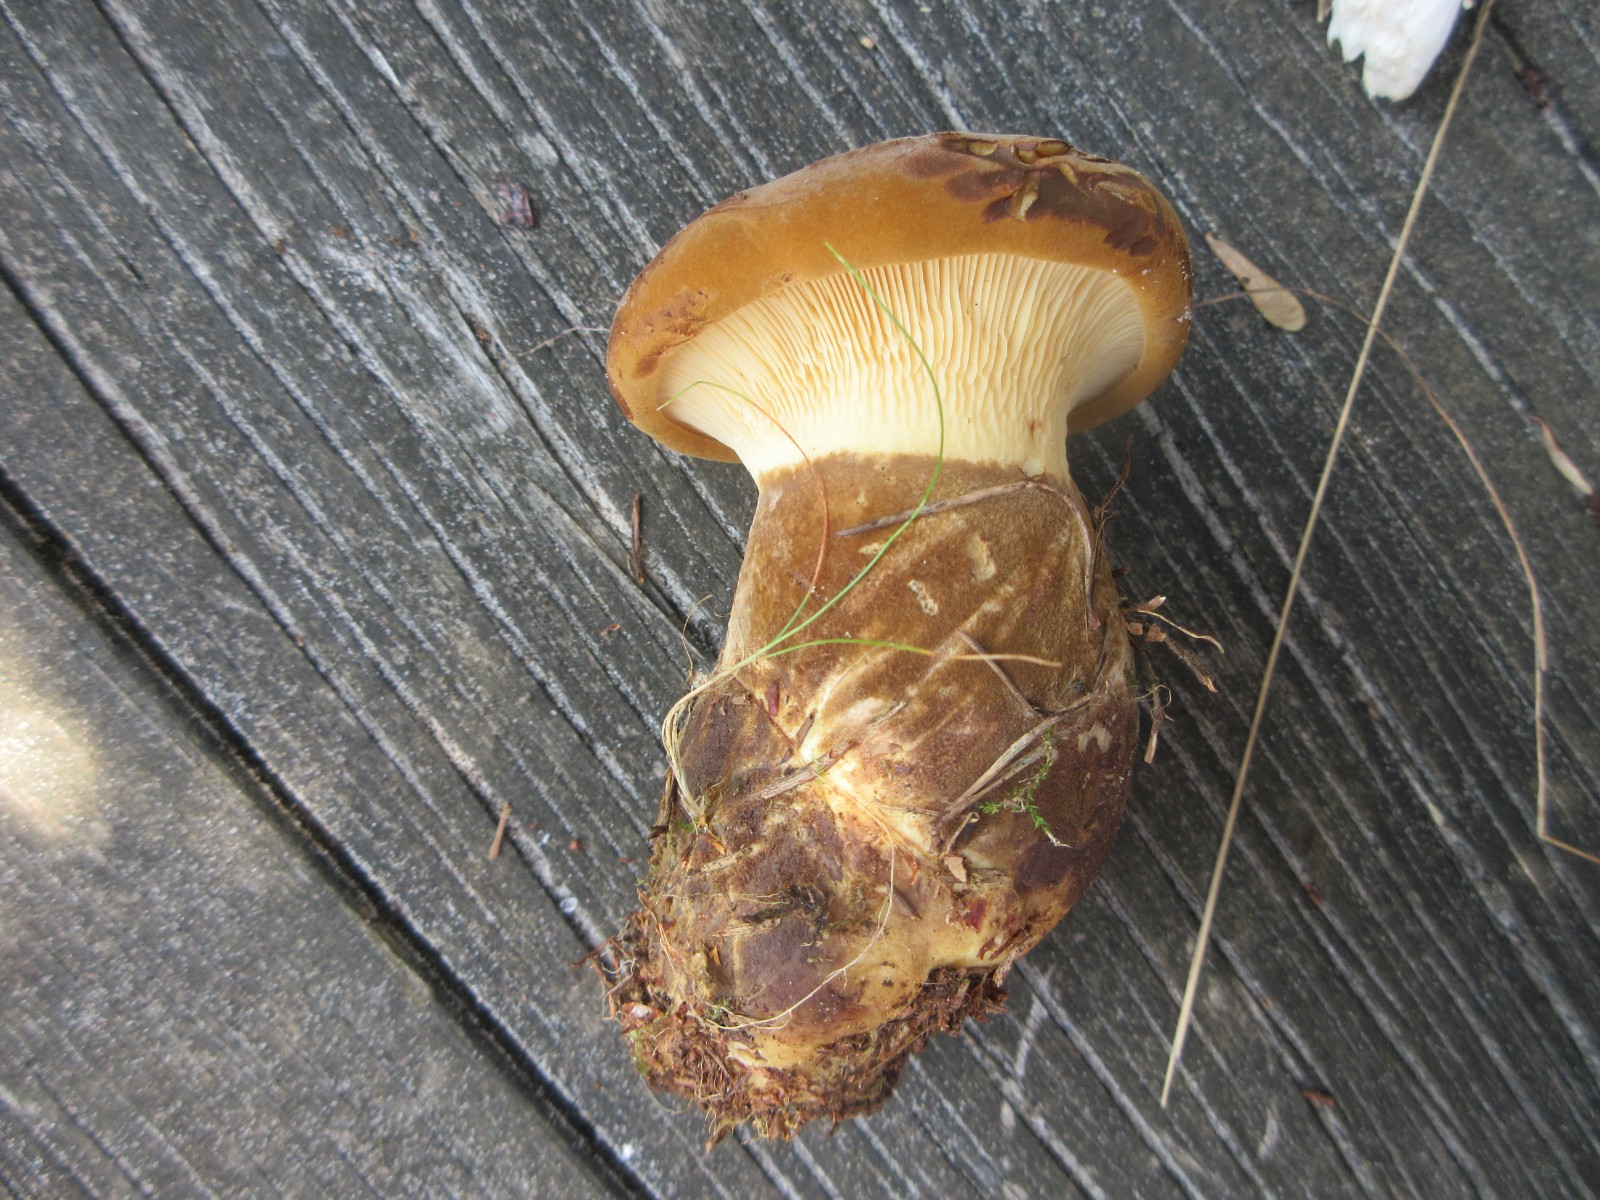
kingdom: Fungi
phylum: Basidiomycota
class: Agaricomycetes
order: Boletales
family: Tapinellaceae
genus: Tapinella
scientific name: Tapinella atrotomentosa
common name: sortfiltet viftesvamp
